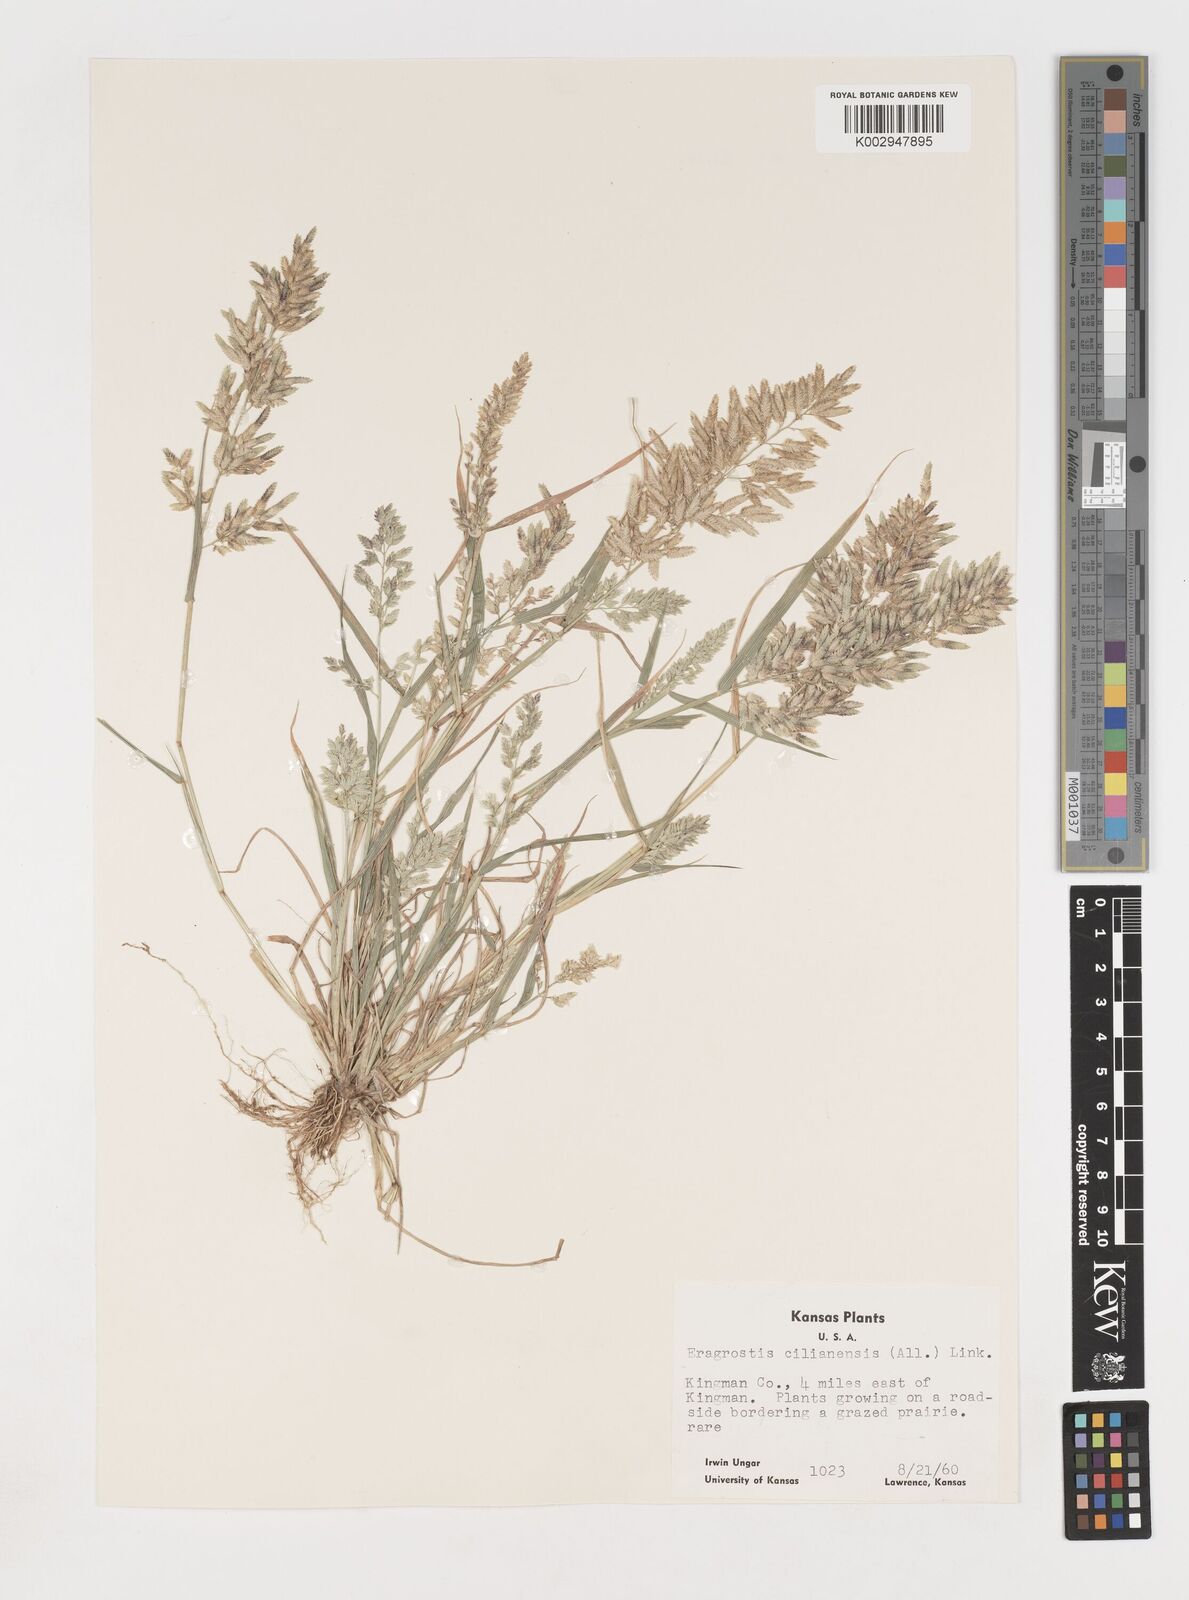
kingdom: Plantae
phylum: Tracheophyta
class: Liliopsida
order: Poales
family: Poaceae
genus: Eragrostis
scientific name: Eragrostis cilianensis
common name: Stinkgrass
